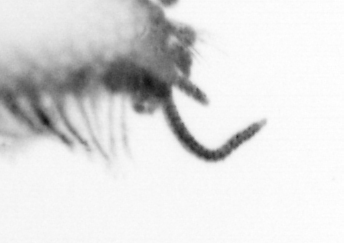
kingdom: Animalia
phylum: Annelida
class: Polychaeta
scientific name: Polychaeta
